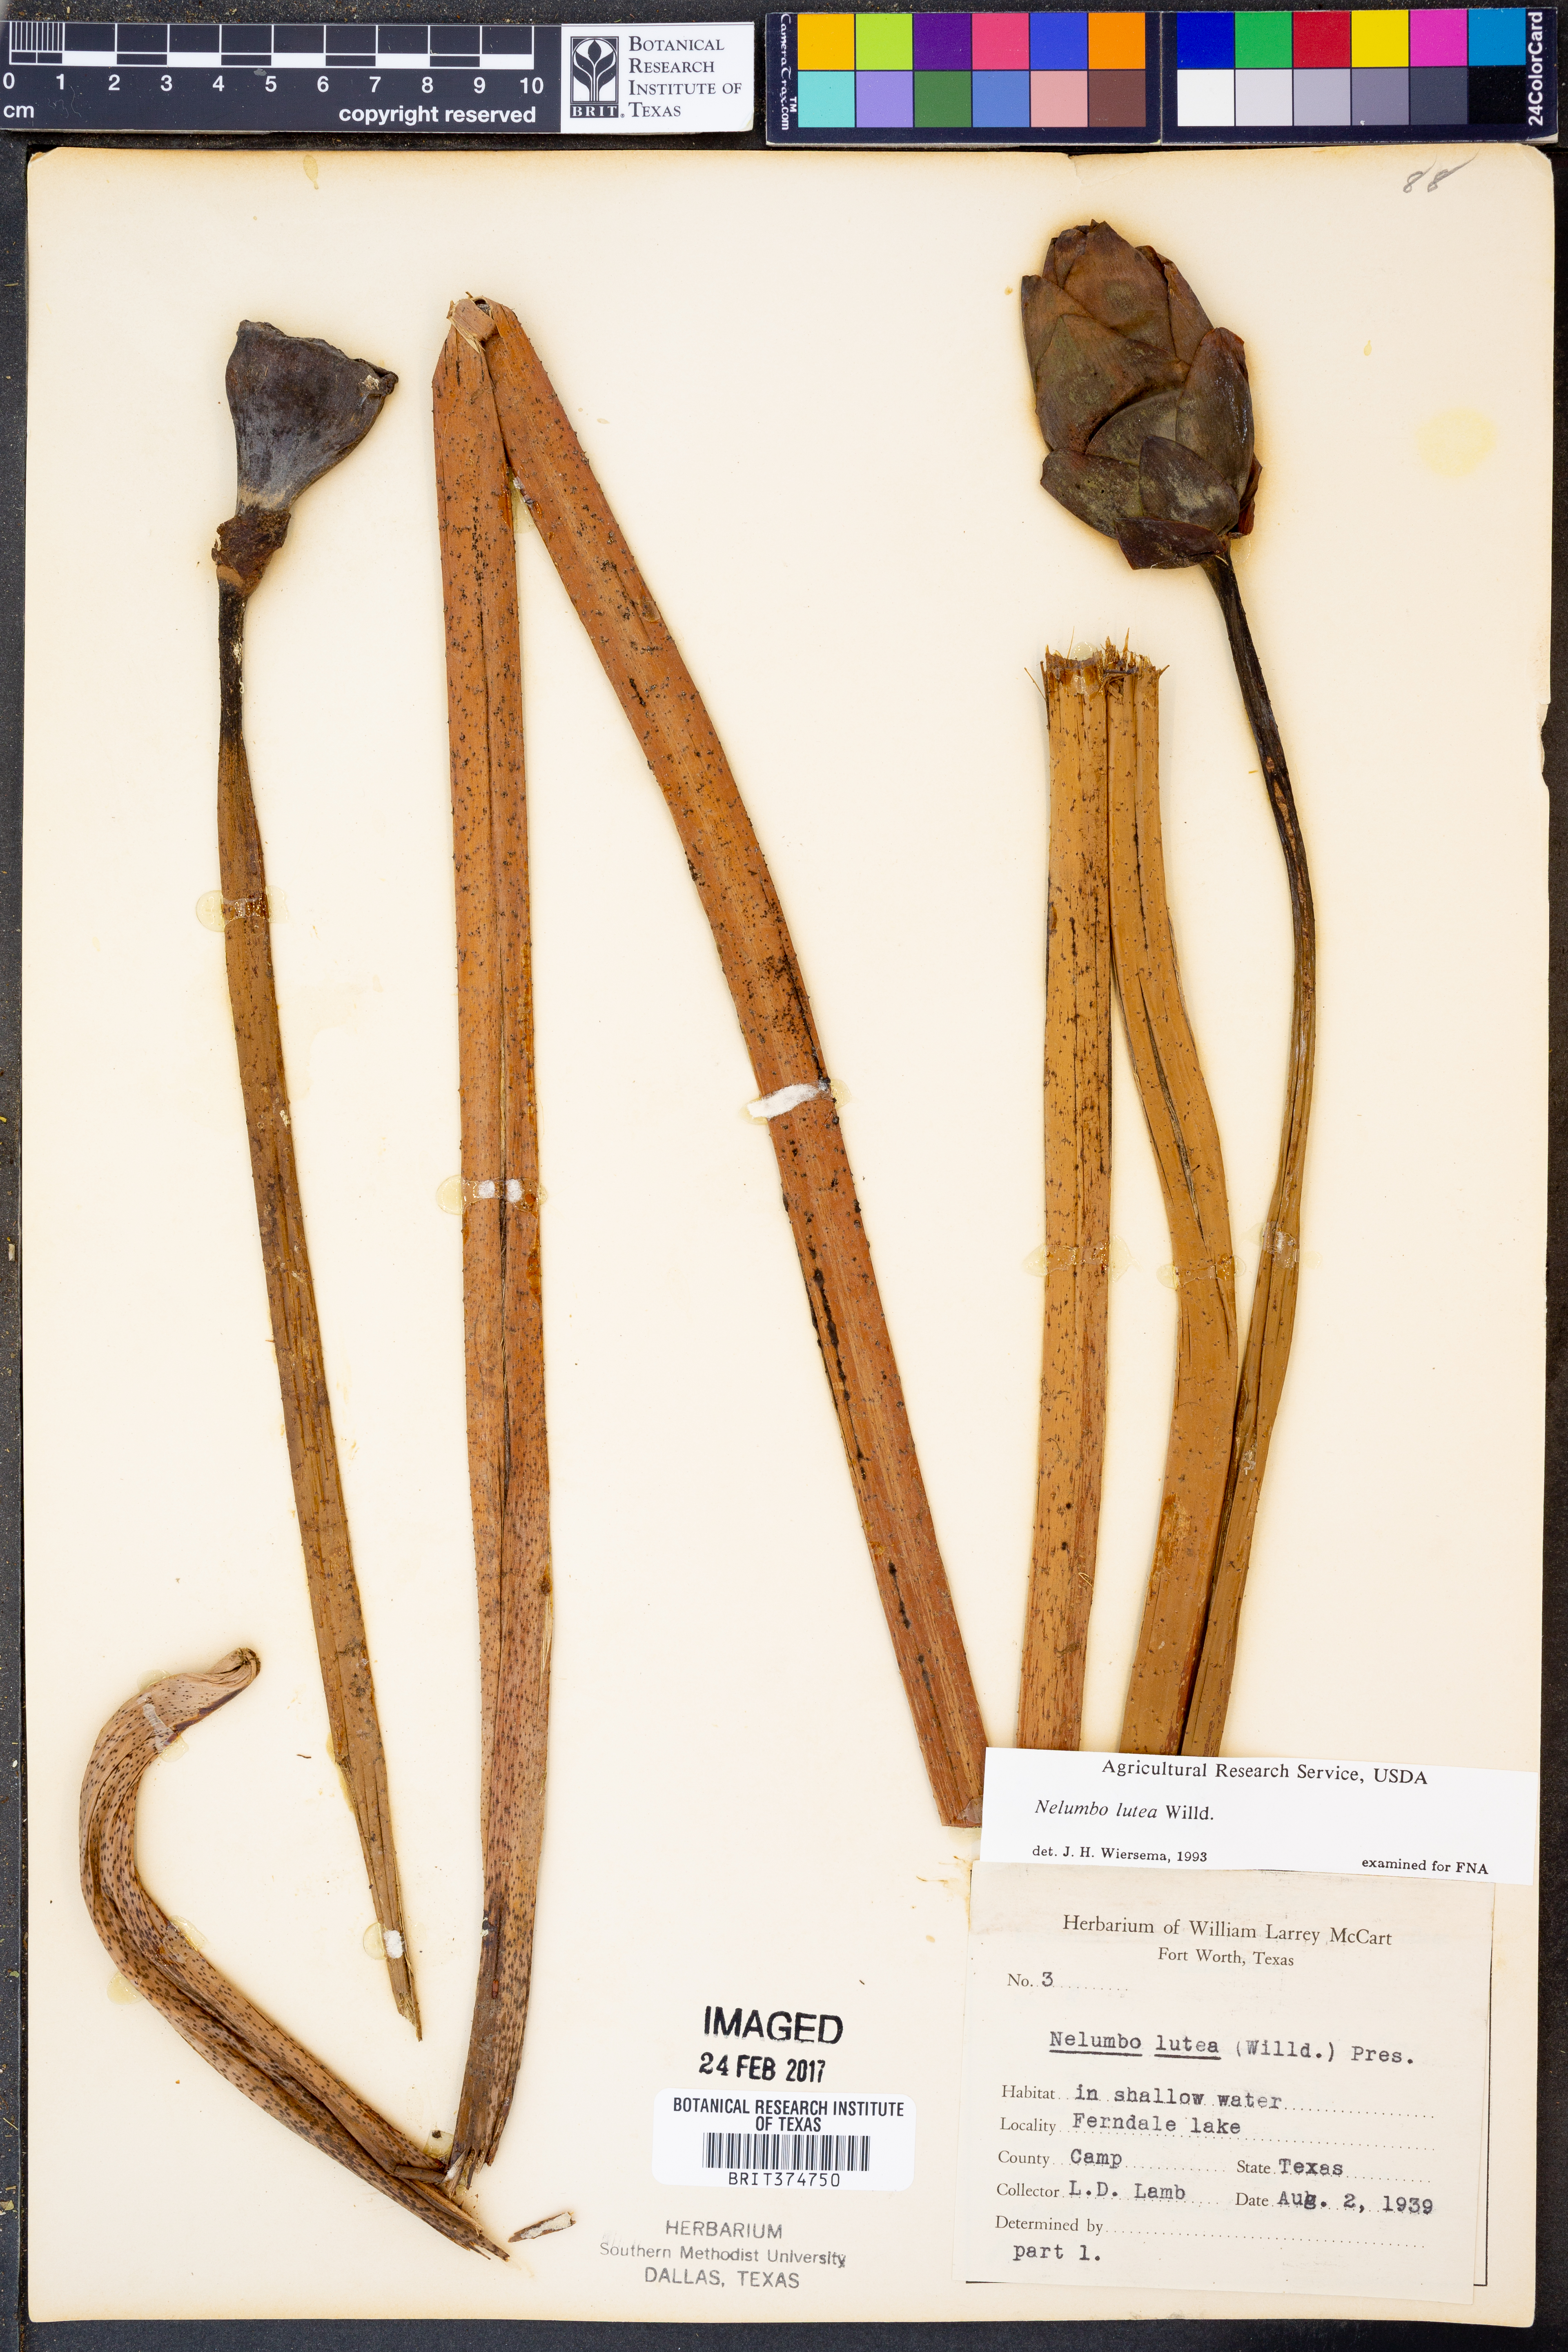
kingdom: Plantae
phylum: Tracheophyta
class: Magnoliopsida
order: Proteales
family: Nelumbonaceae
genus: Nelumbo
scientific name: Nelumbo lutea
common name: American lotus
